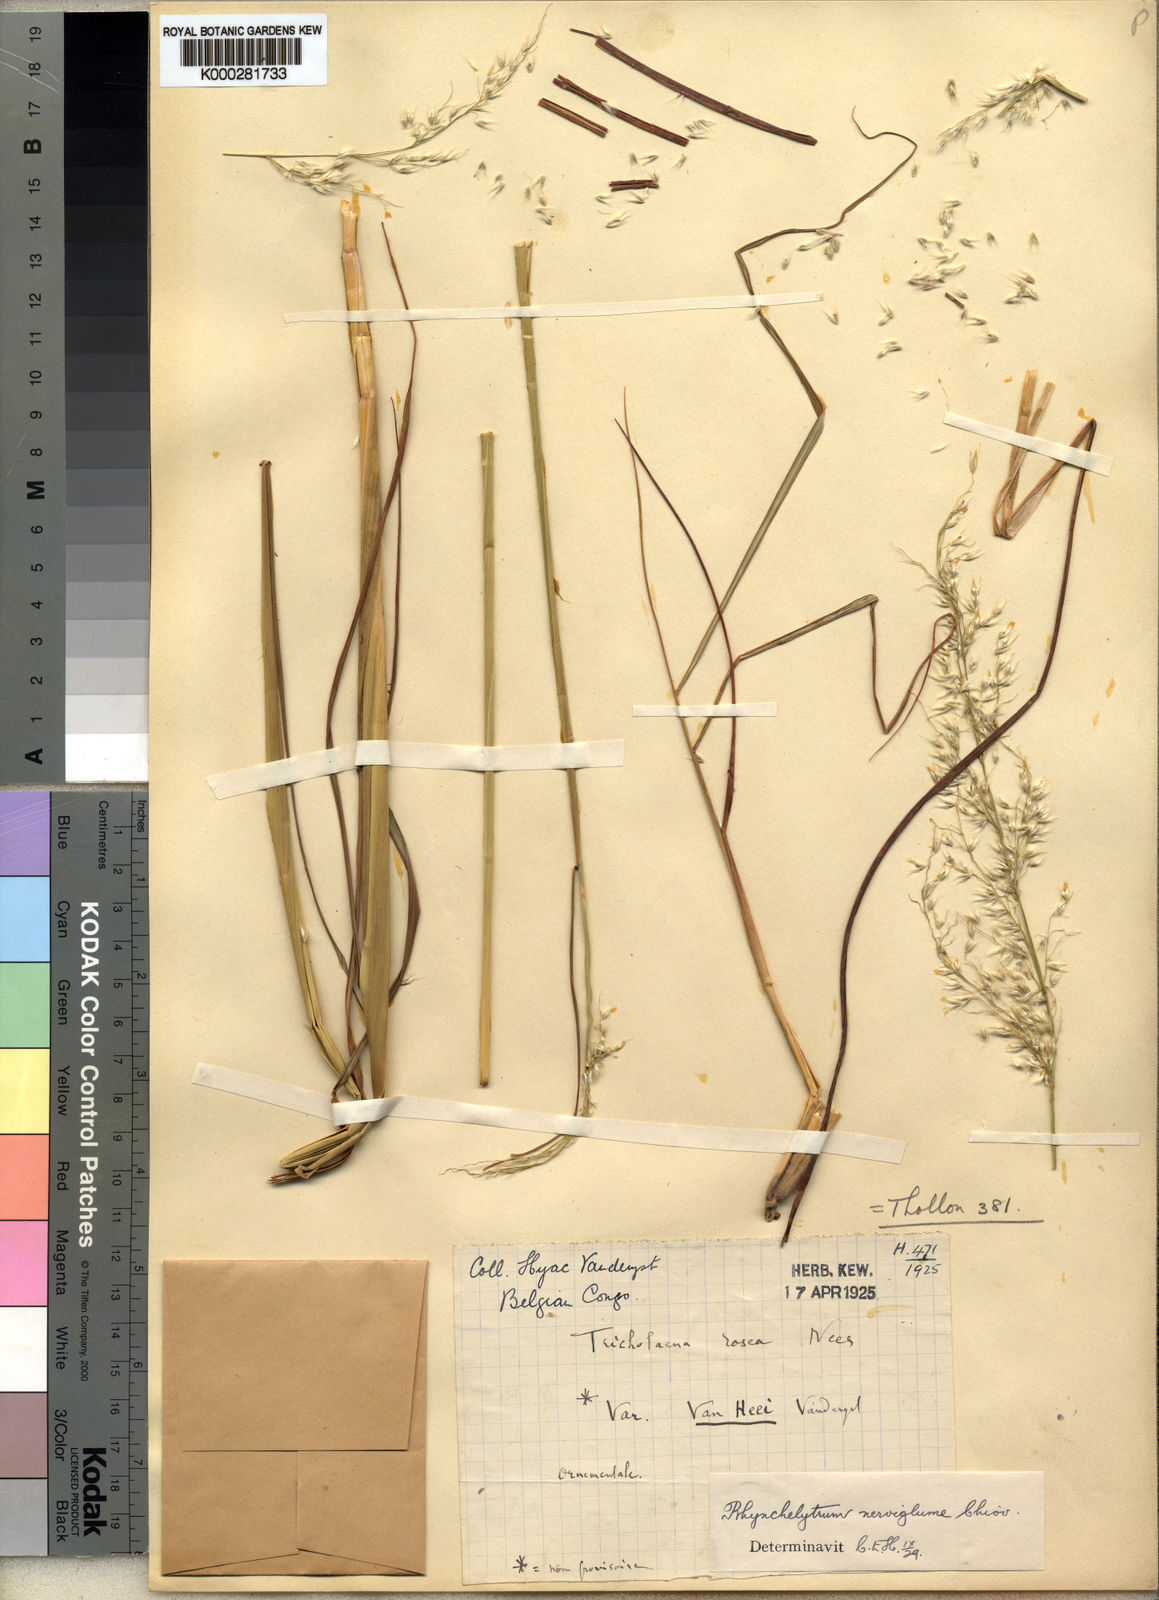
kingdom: Plantae
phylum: Tracheophyta
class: Liliopsida
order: Poales
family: Poaceae
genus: Melinis
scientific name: Melinis nerviglumis
